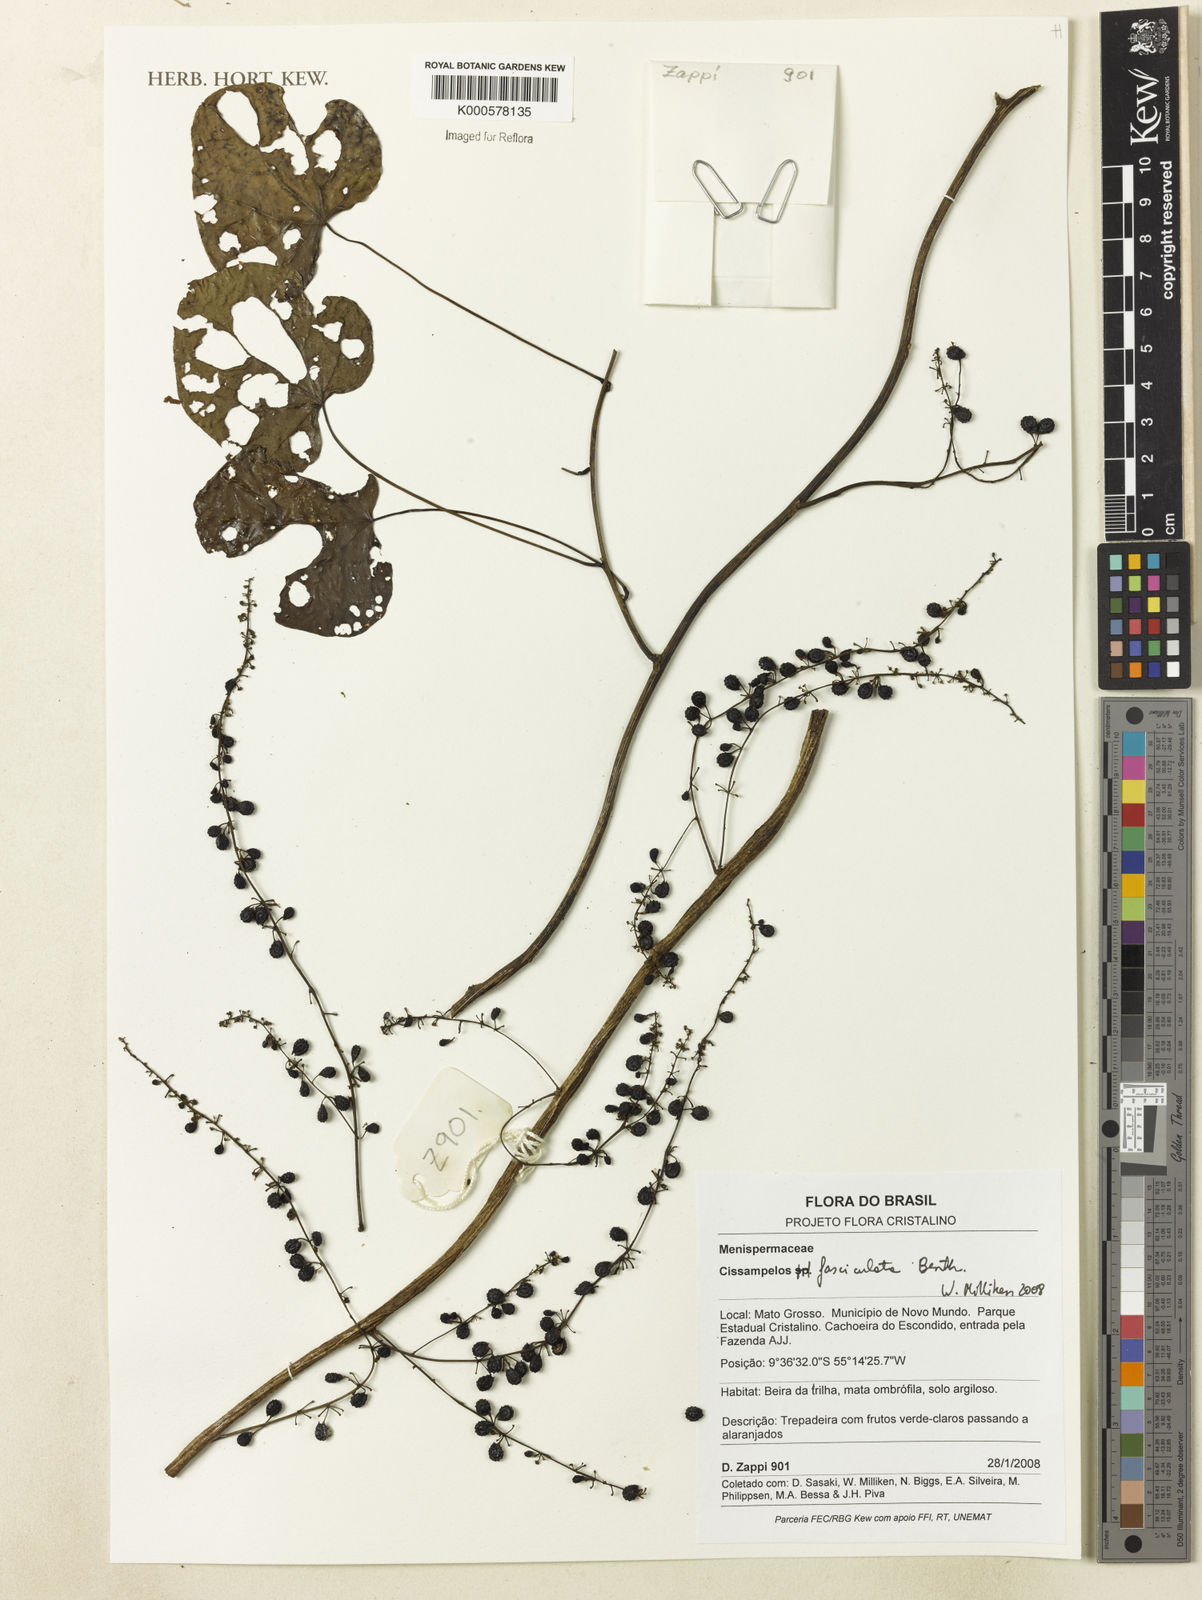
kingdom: Plantae
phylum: Tracheophyta
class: Magnoliopsida
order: Ranunculales
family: Menispermaceae
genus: Cissampelos
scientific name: Cissampelos fasciculata
